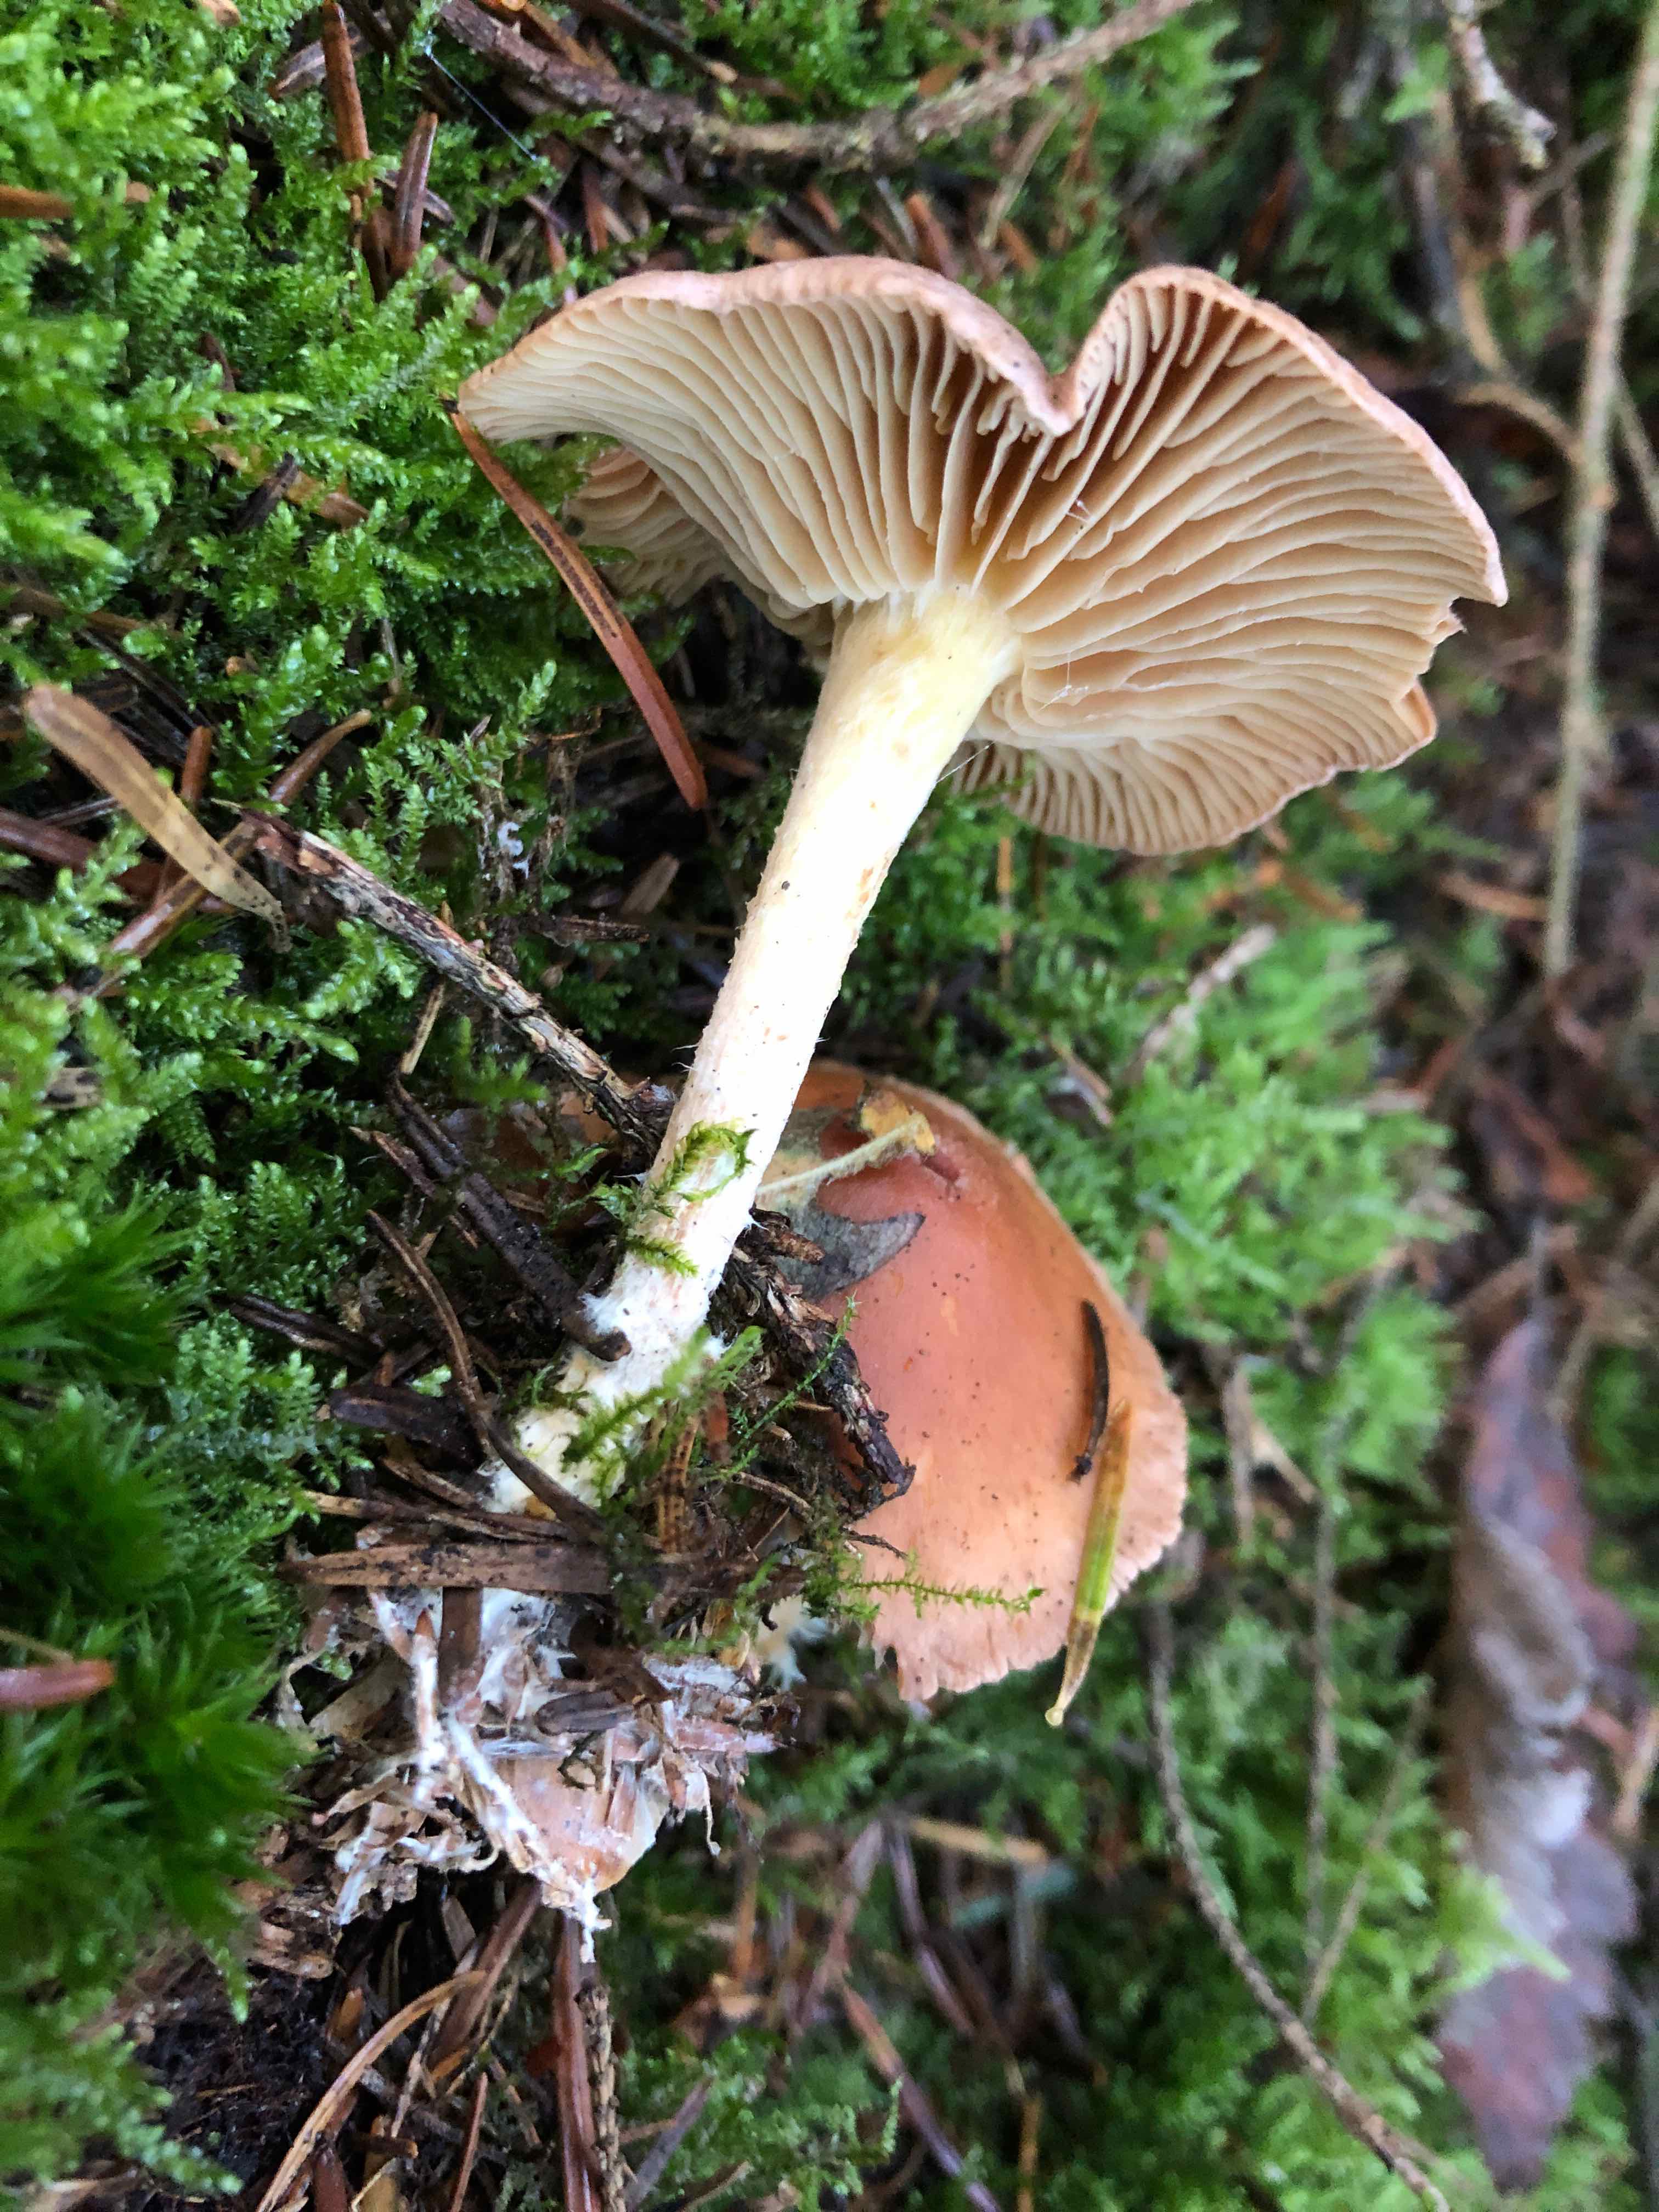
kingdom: Fungi
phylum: Basidiomycota
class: Agaricomycetes
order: Agaricales
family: Omphalotaceae
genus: Collybiopsis
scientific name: Collybiopsis peronata
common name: bestøvlet fladhat
